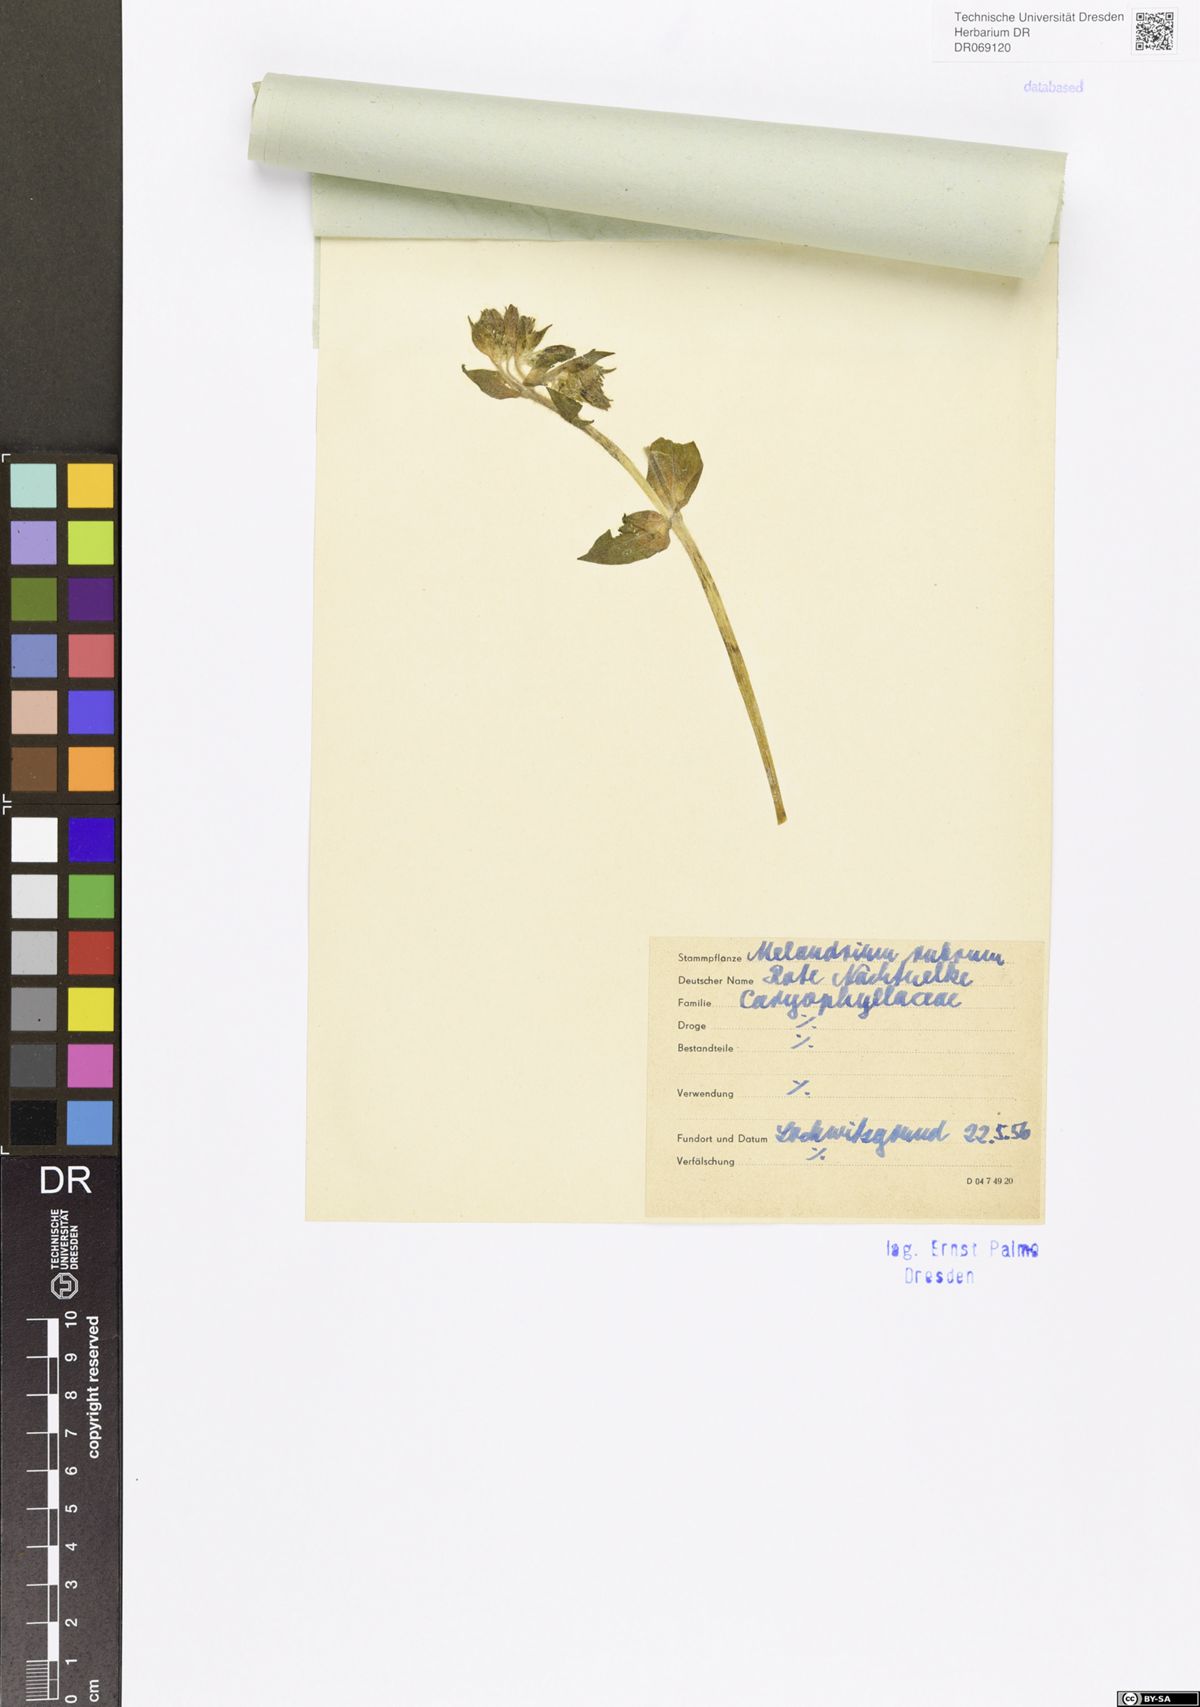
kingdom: Plantae
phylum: Tracheophyta
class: Magnoliopsida
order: Caryophyllales
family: Caryophyllaceae
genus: Silene
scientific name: Silene dioica
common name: Red campion
